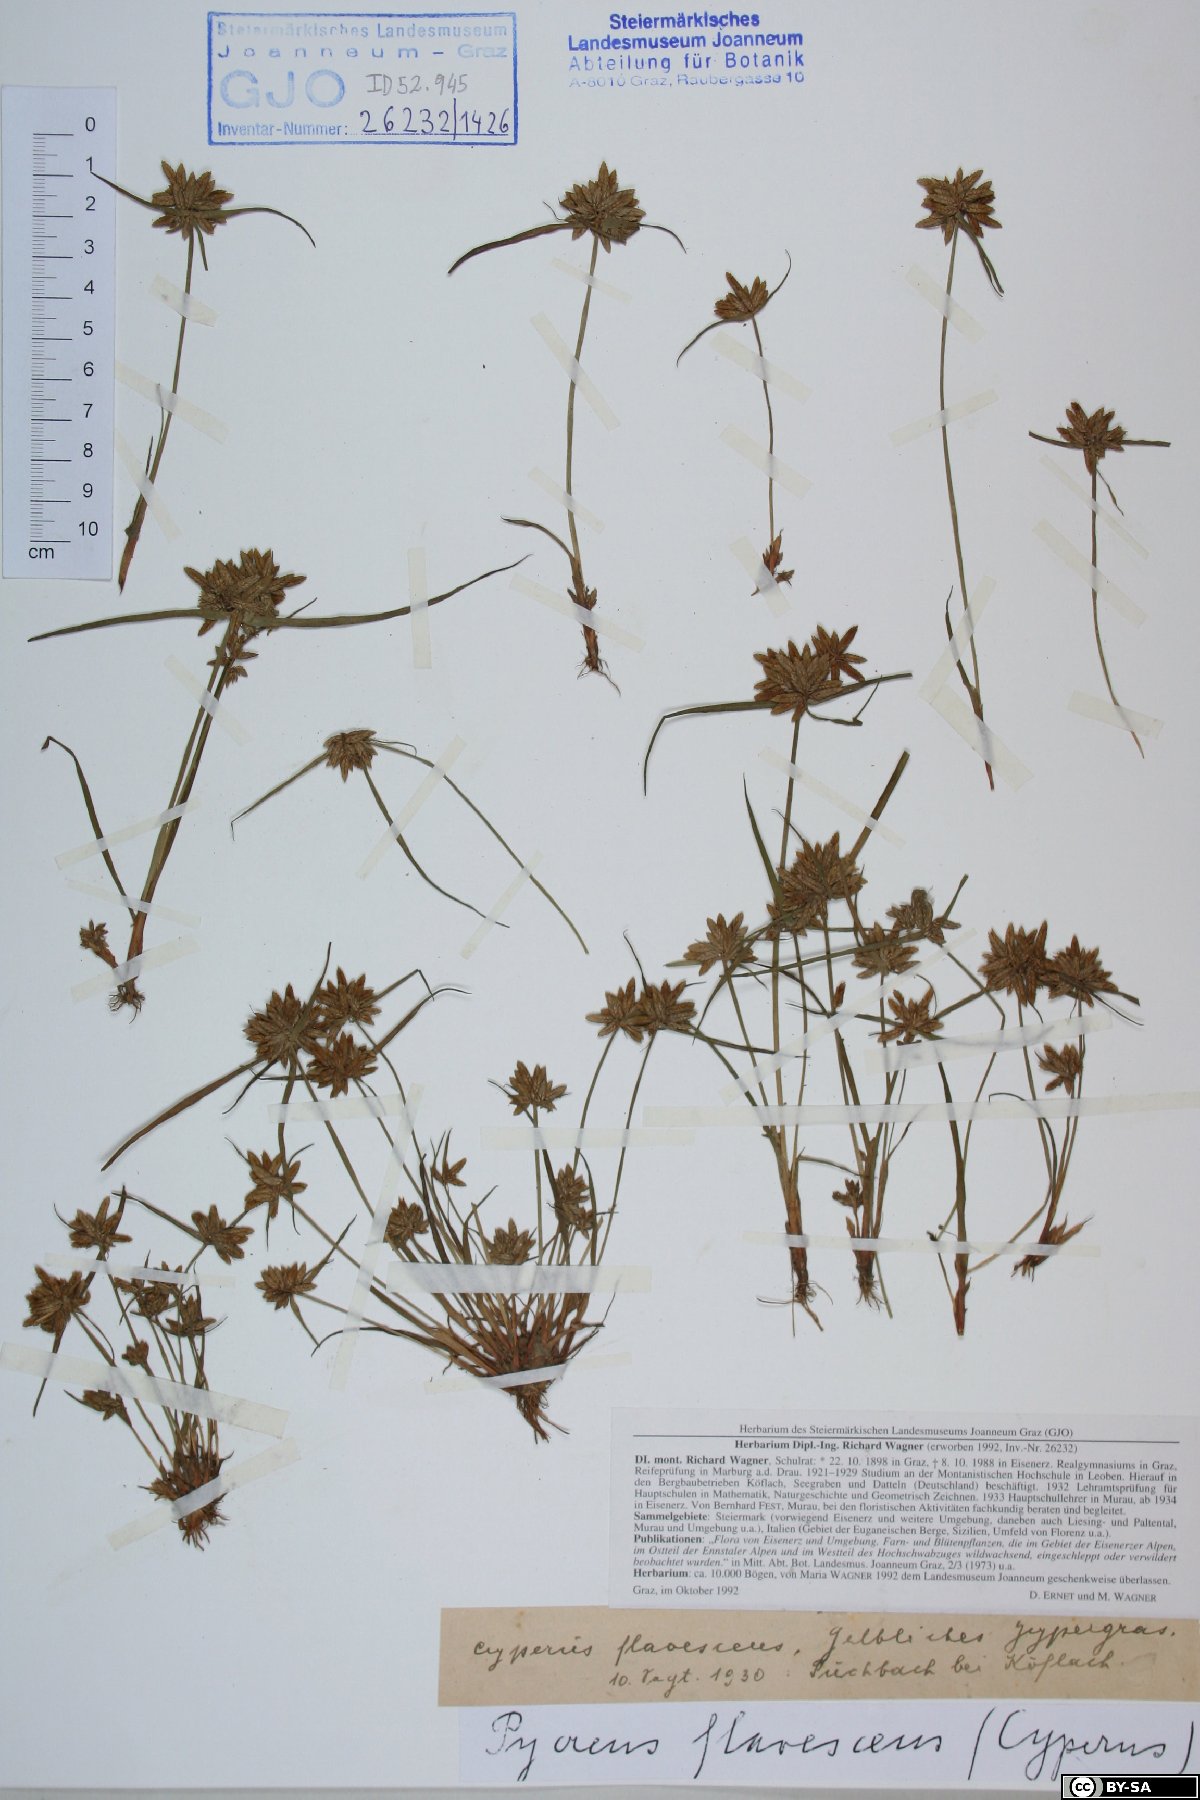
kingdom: Plantae
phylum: Tracheophyta
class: Liliopsida
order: Poales
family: Cyperaceae
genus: Cyperus
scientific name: Cyperus flavescens
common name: Yellow galingale
